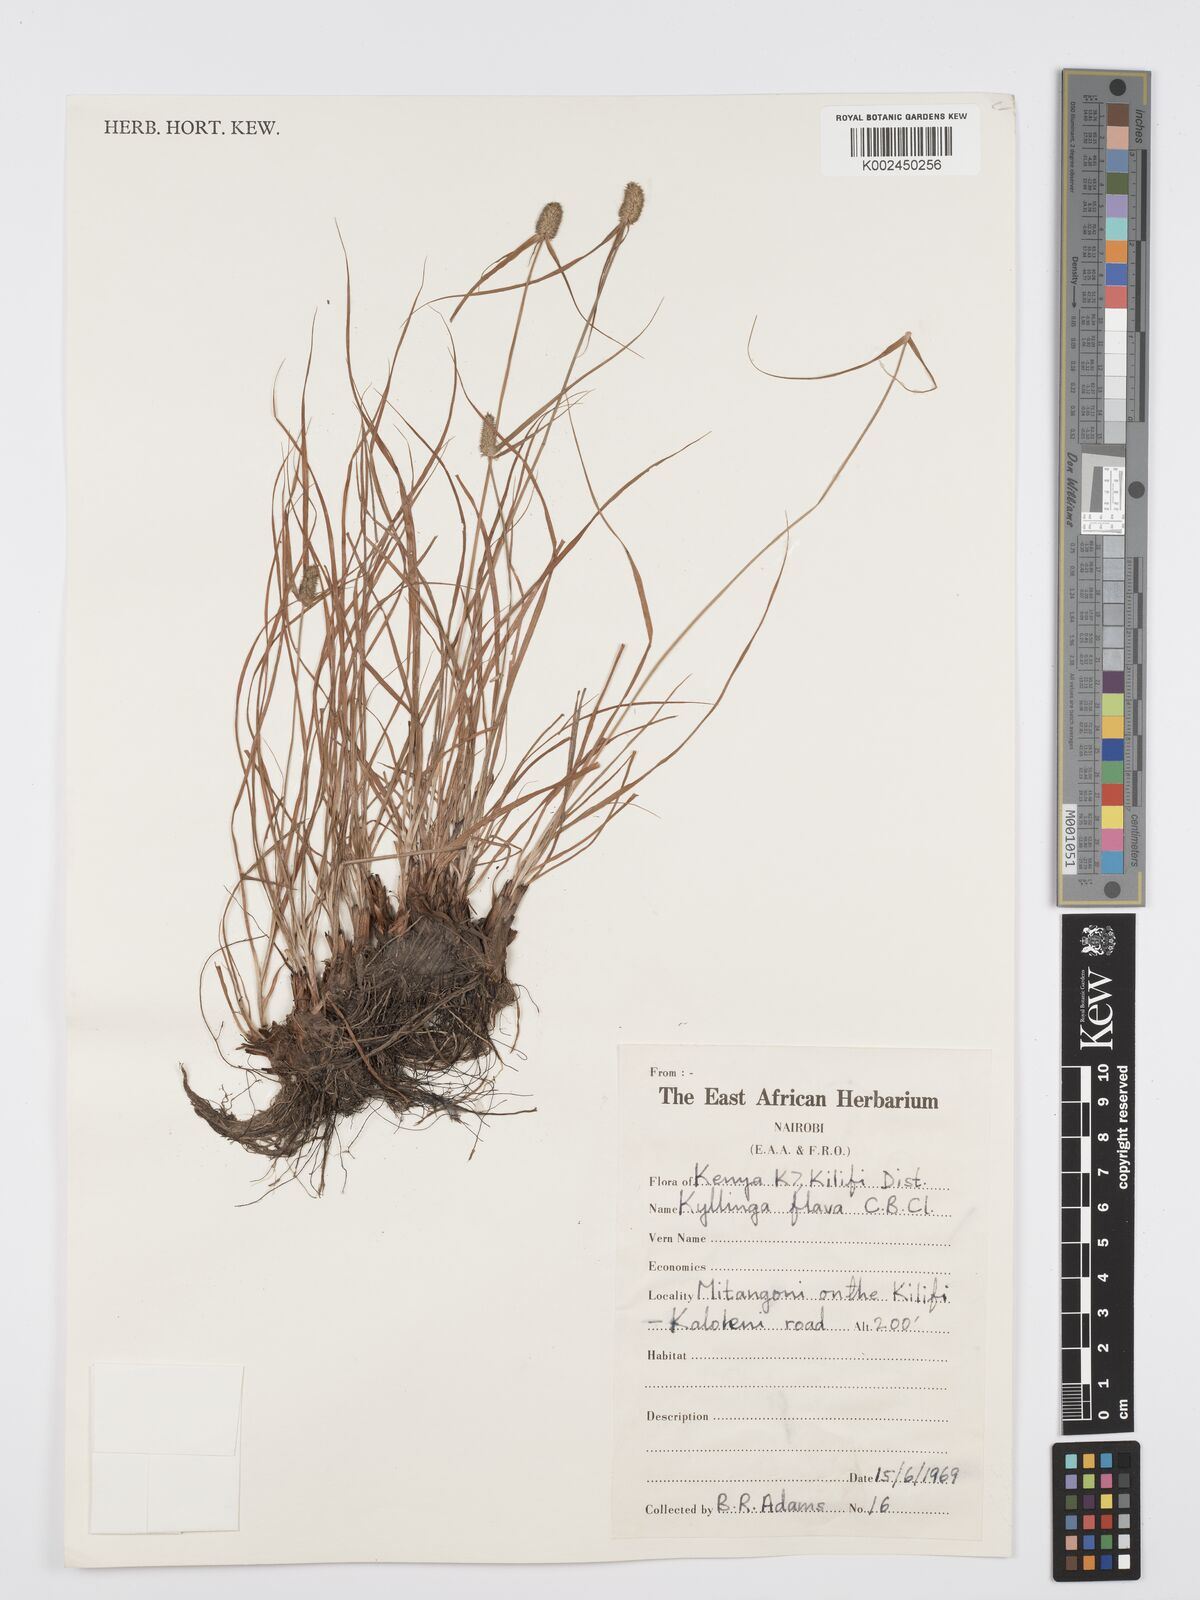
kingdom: Plantae
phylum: Tracheophyta
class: Liliopsida
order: Poales
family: Cyperaceae
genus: Cyperus
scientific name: Cyperus
